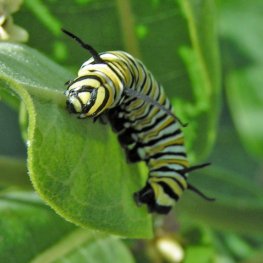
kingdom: Animalia
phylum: Arthropoda
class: Insecta
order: Lepidoptera
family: Nymphalidae
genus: Danaus
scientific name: Danaus plexippus
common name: Monarch
